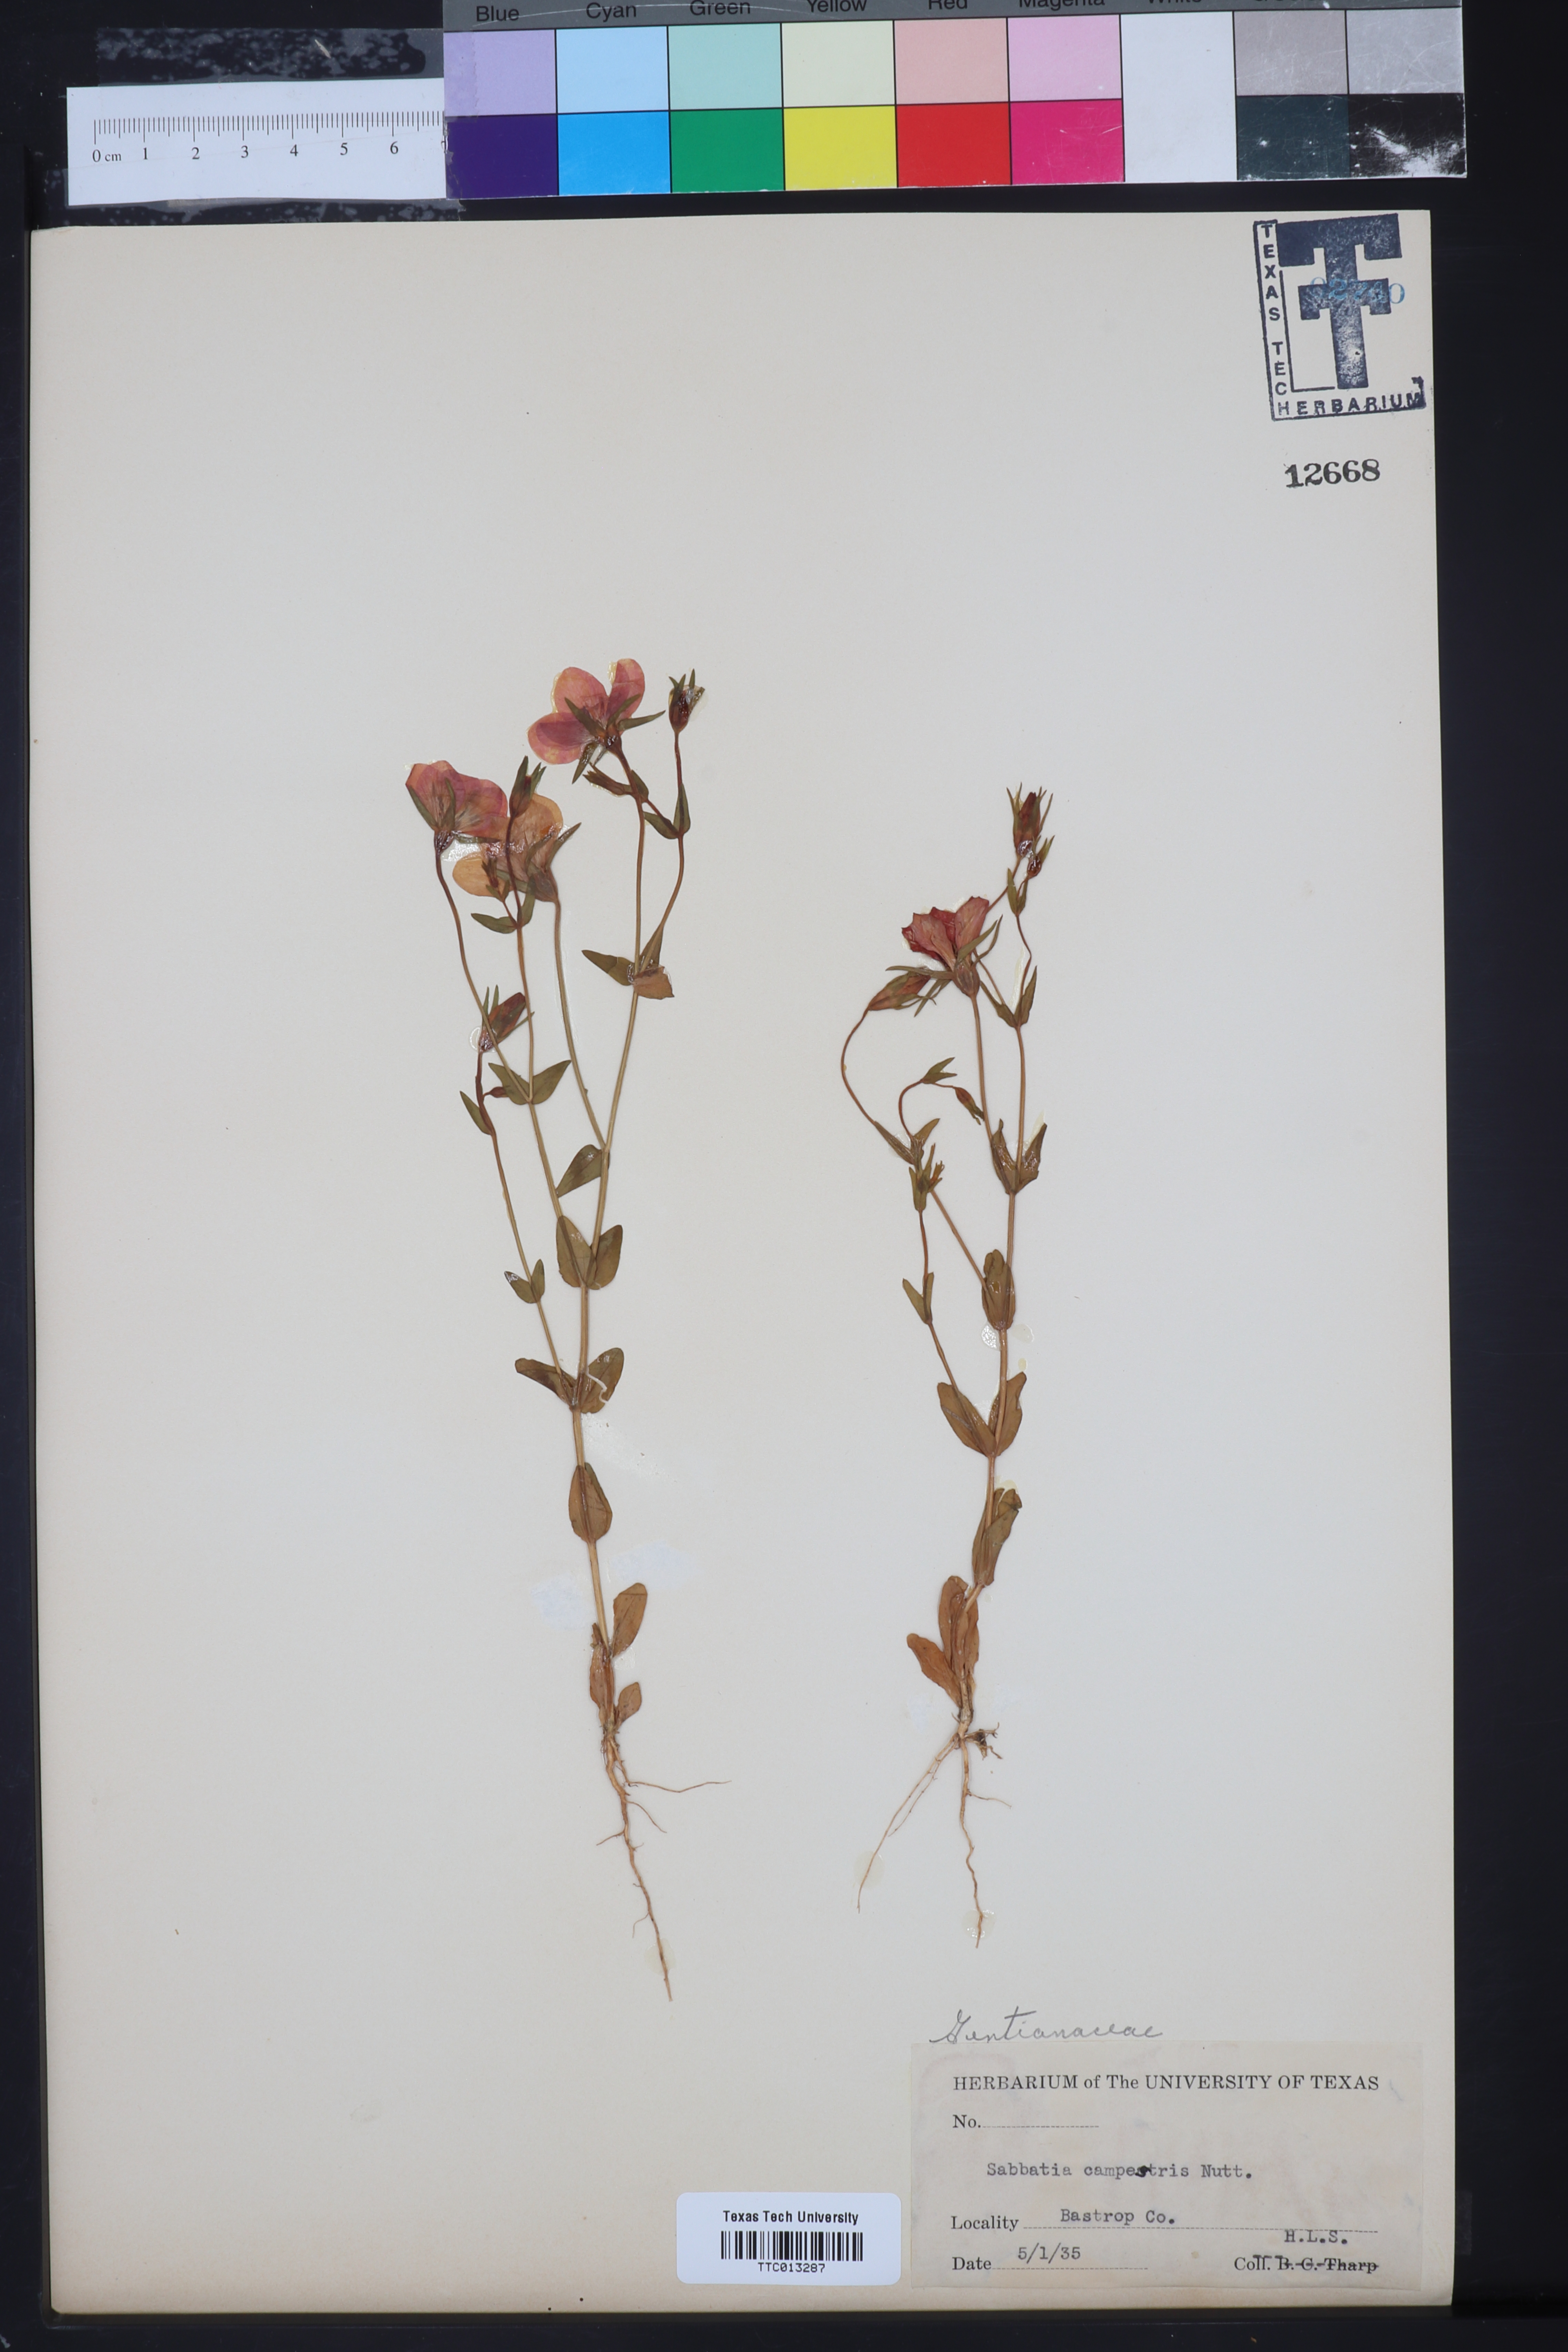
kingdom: Plantae
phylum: Tracheophyta
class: Magnoliopsida
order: Gentianales
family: Gentianaceae
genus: Sabatia
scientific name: Sabatia campestris
